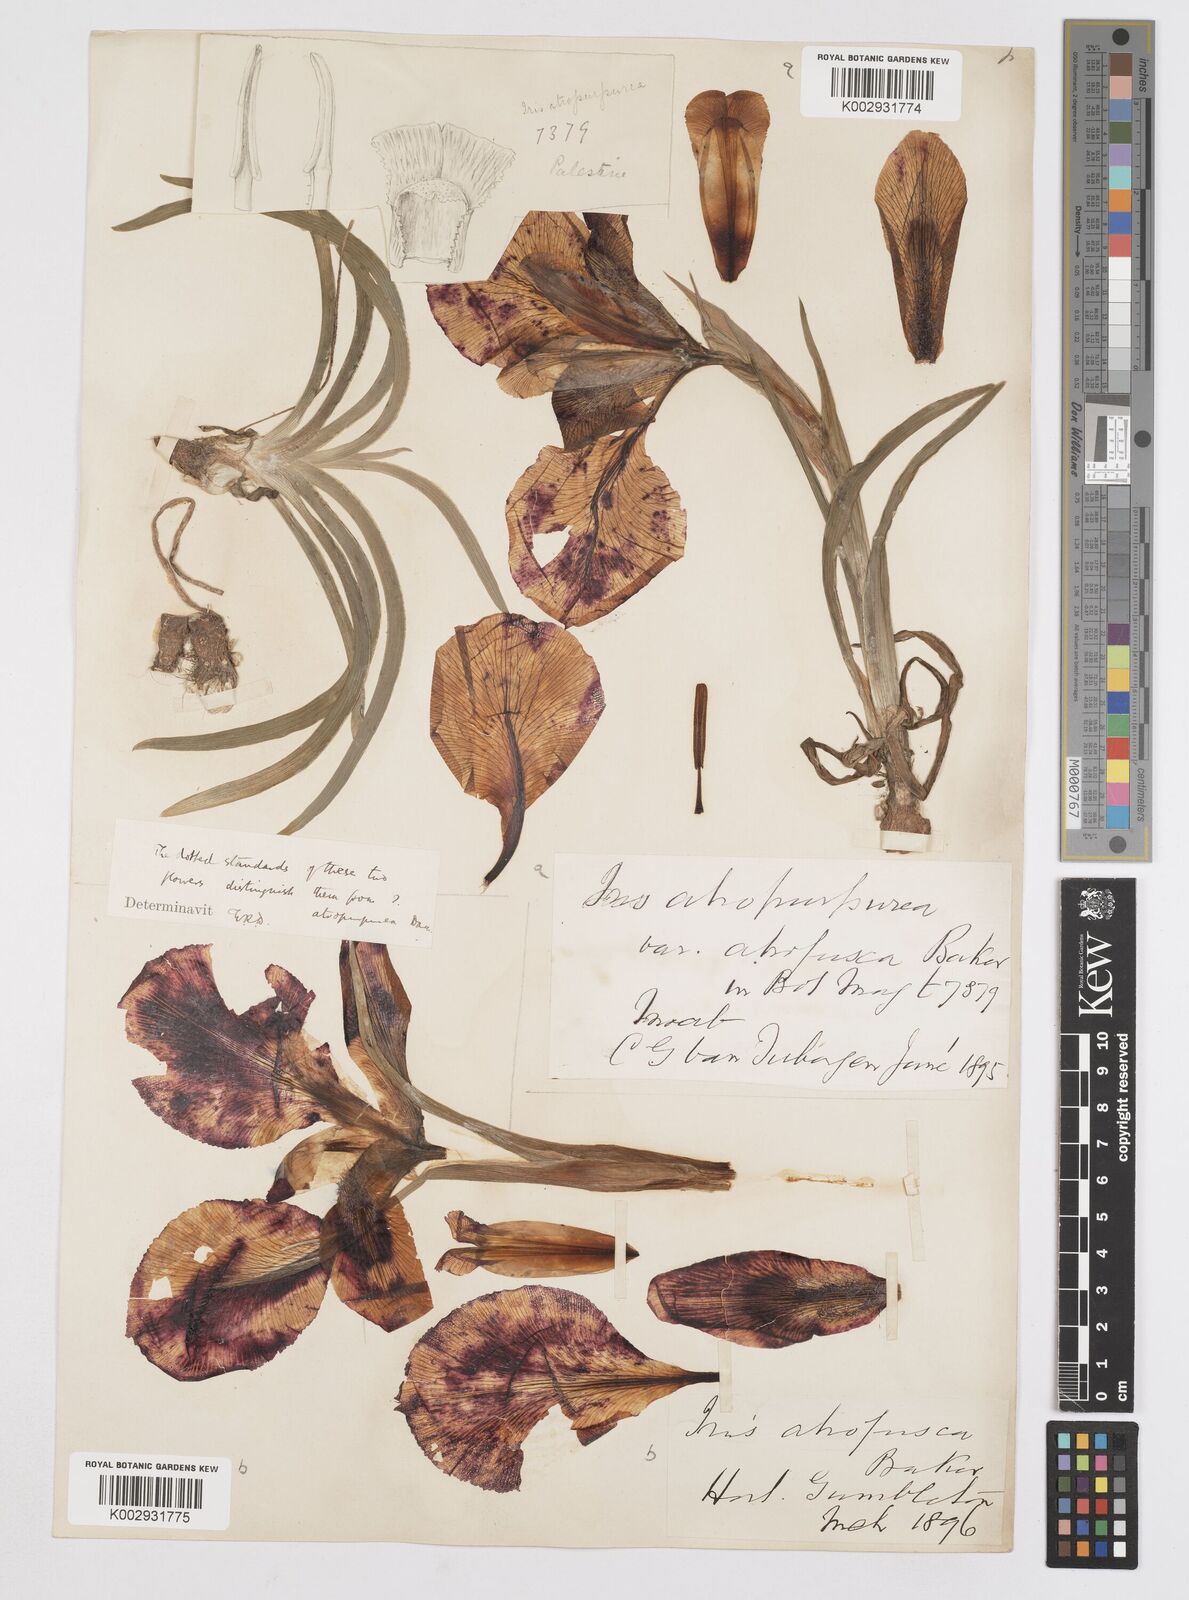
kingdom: Plantae
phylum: Tracheophyta
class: Liliopsida
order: Asparagales
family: Iridaceae
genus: Iris
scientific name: Iris atropurpurea
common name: Coastal iris
